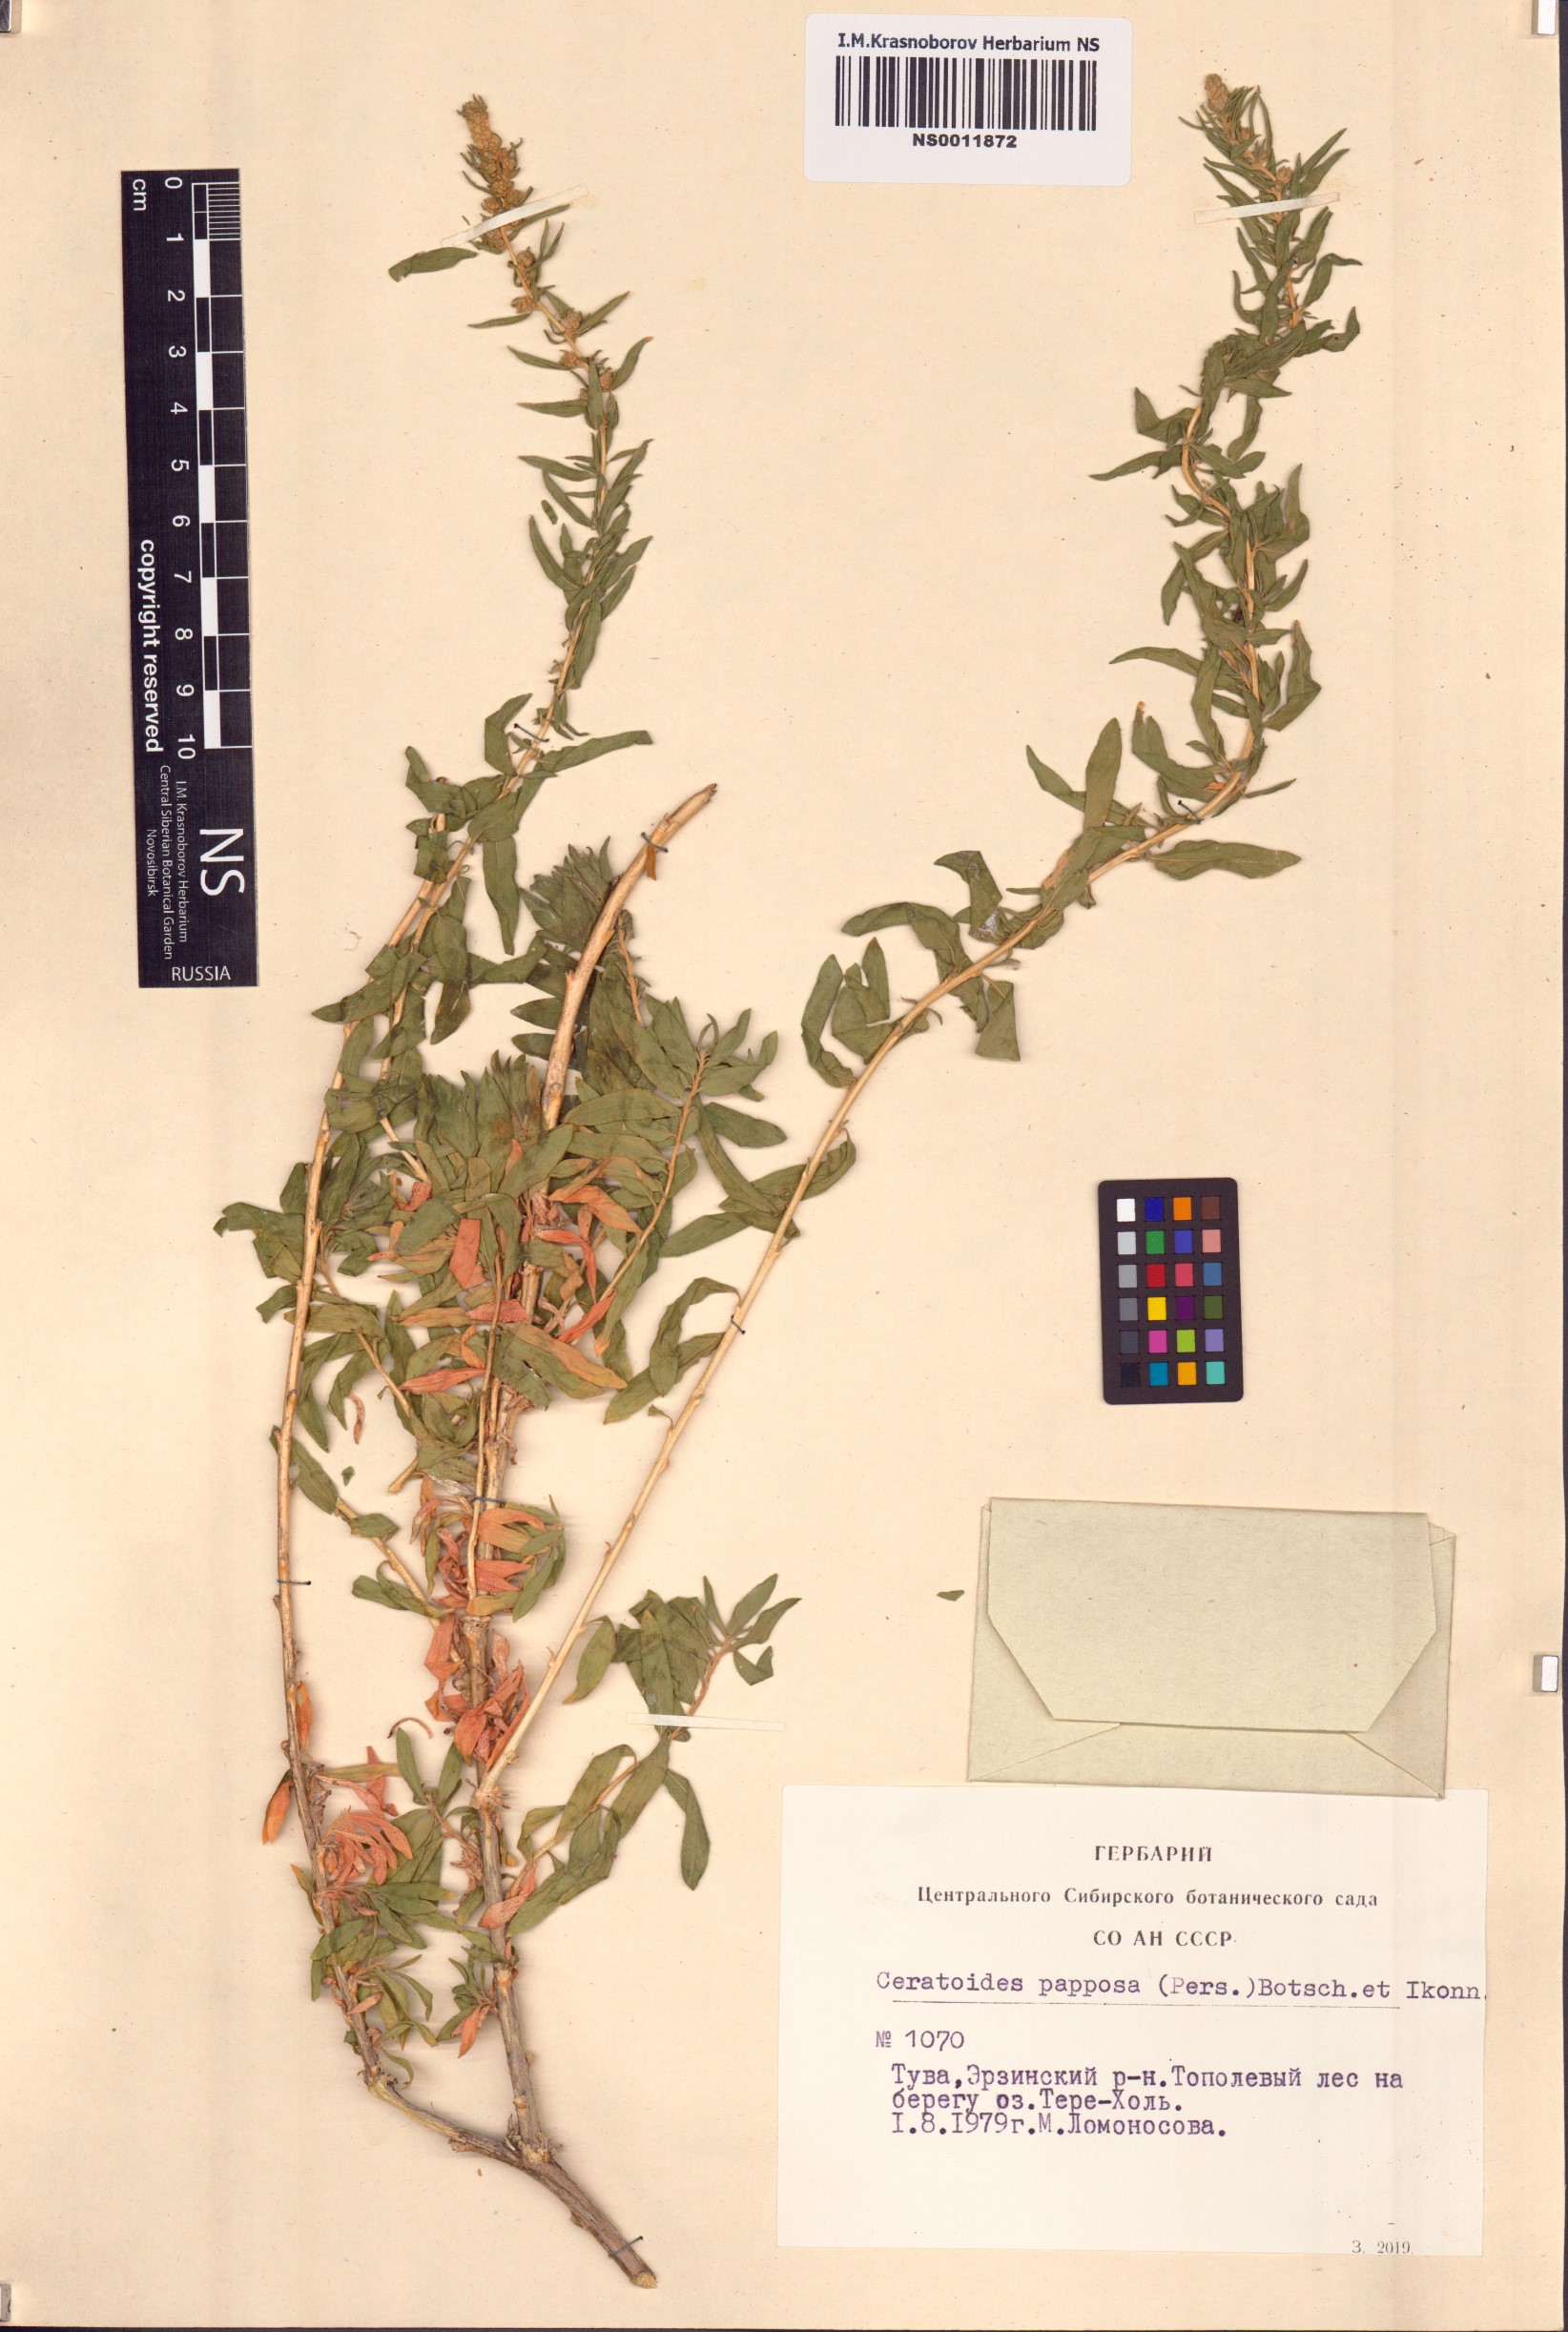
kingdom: Plantae
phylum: Tracheophyta
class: Magnoliopsida
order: Caryophyllales
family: Amaranthaceae
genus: Krascheninnikovia
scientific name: Krascheninnikovia ceratoides
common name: Pamirian winterfat
